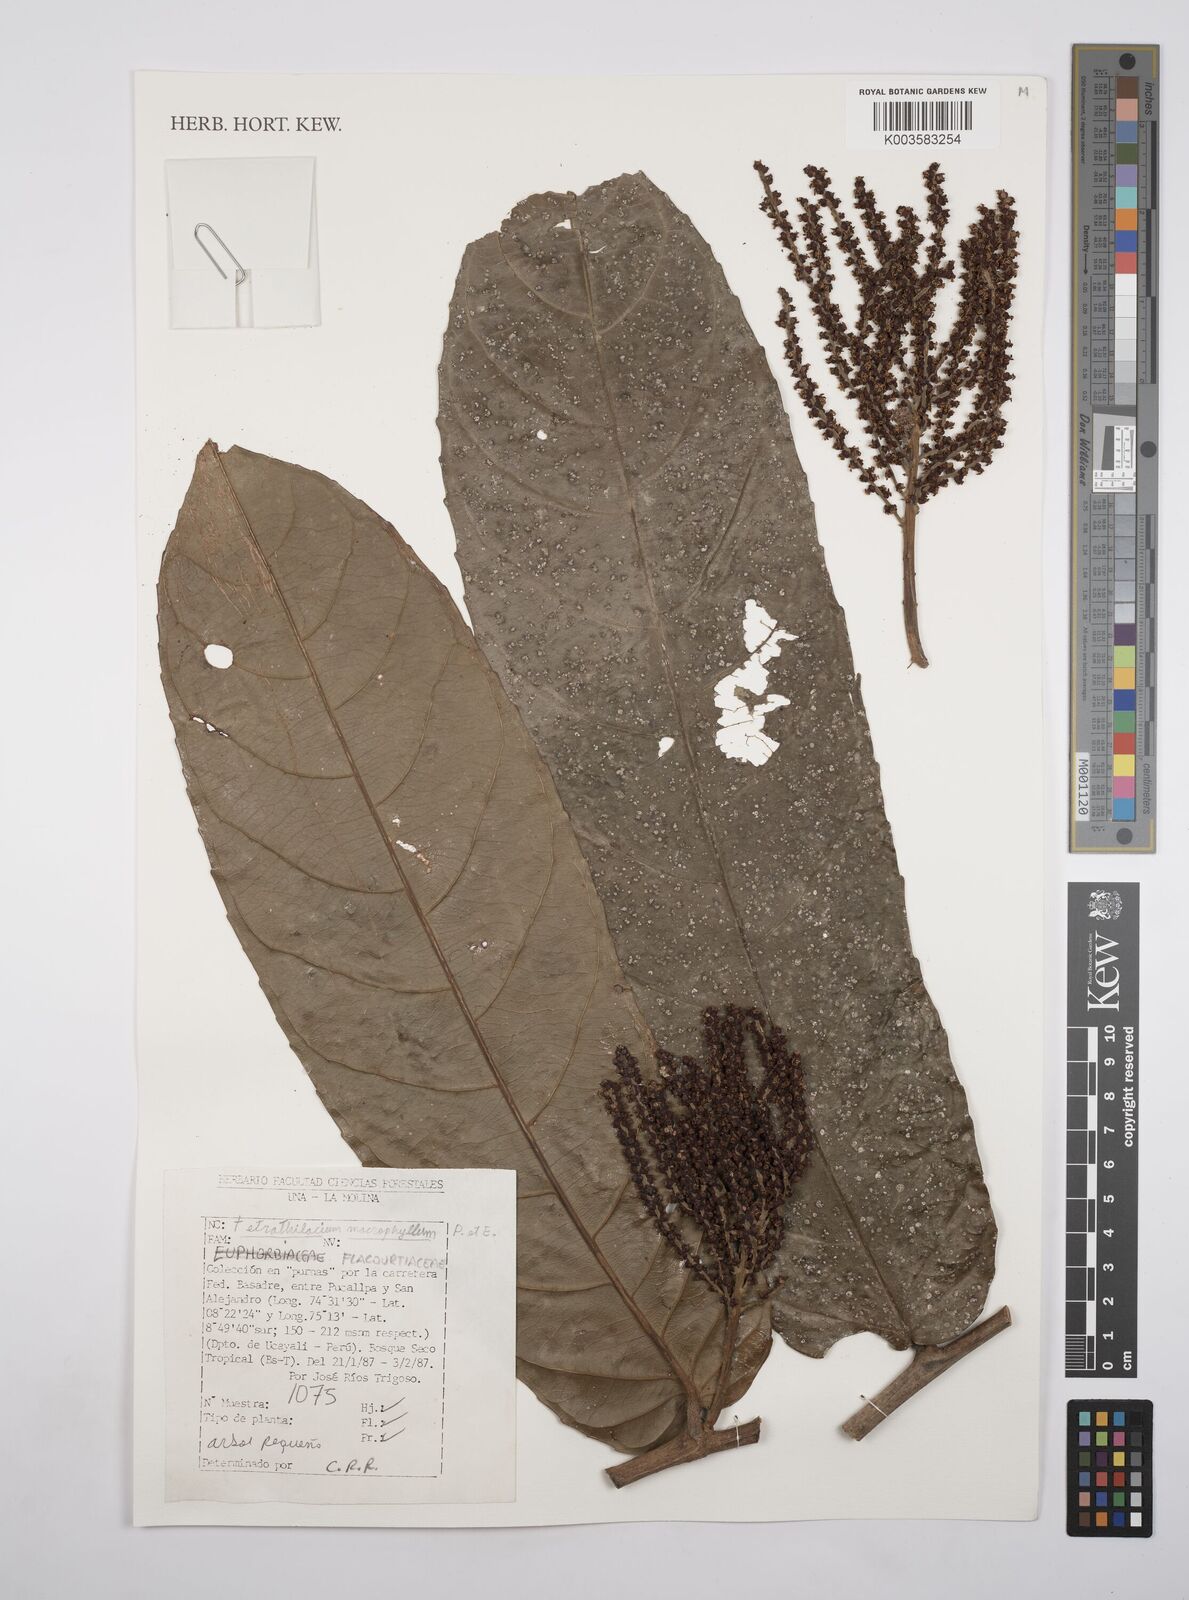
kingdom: Plantae
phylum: Tracheophyta
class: Magnoliopsida
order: Malpighiales
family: Salicaceae
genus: Tetrathylacium
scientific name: Tetrathylacium macrophyllum
